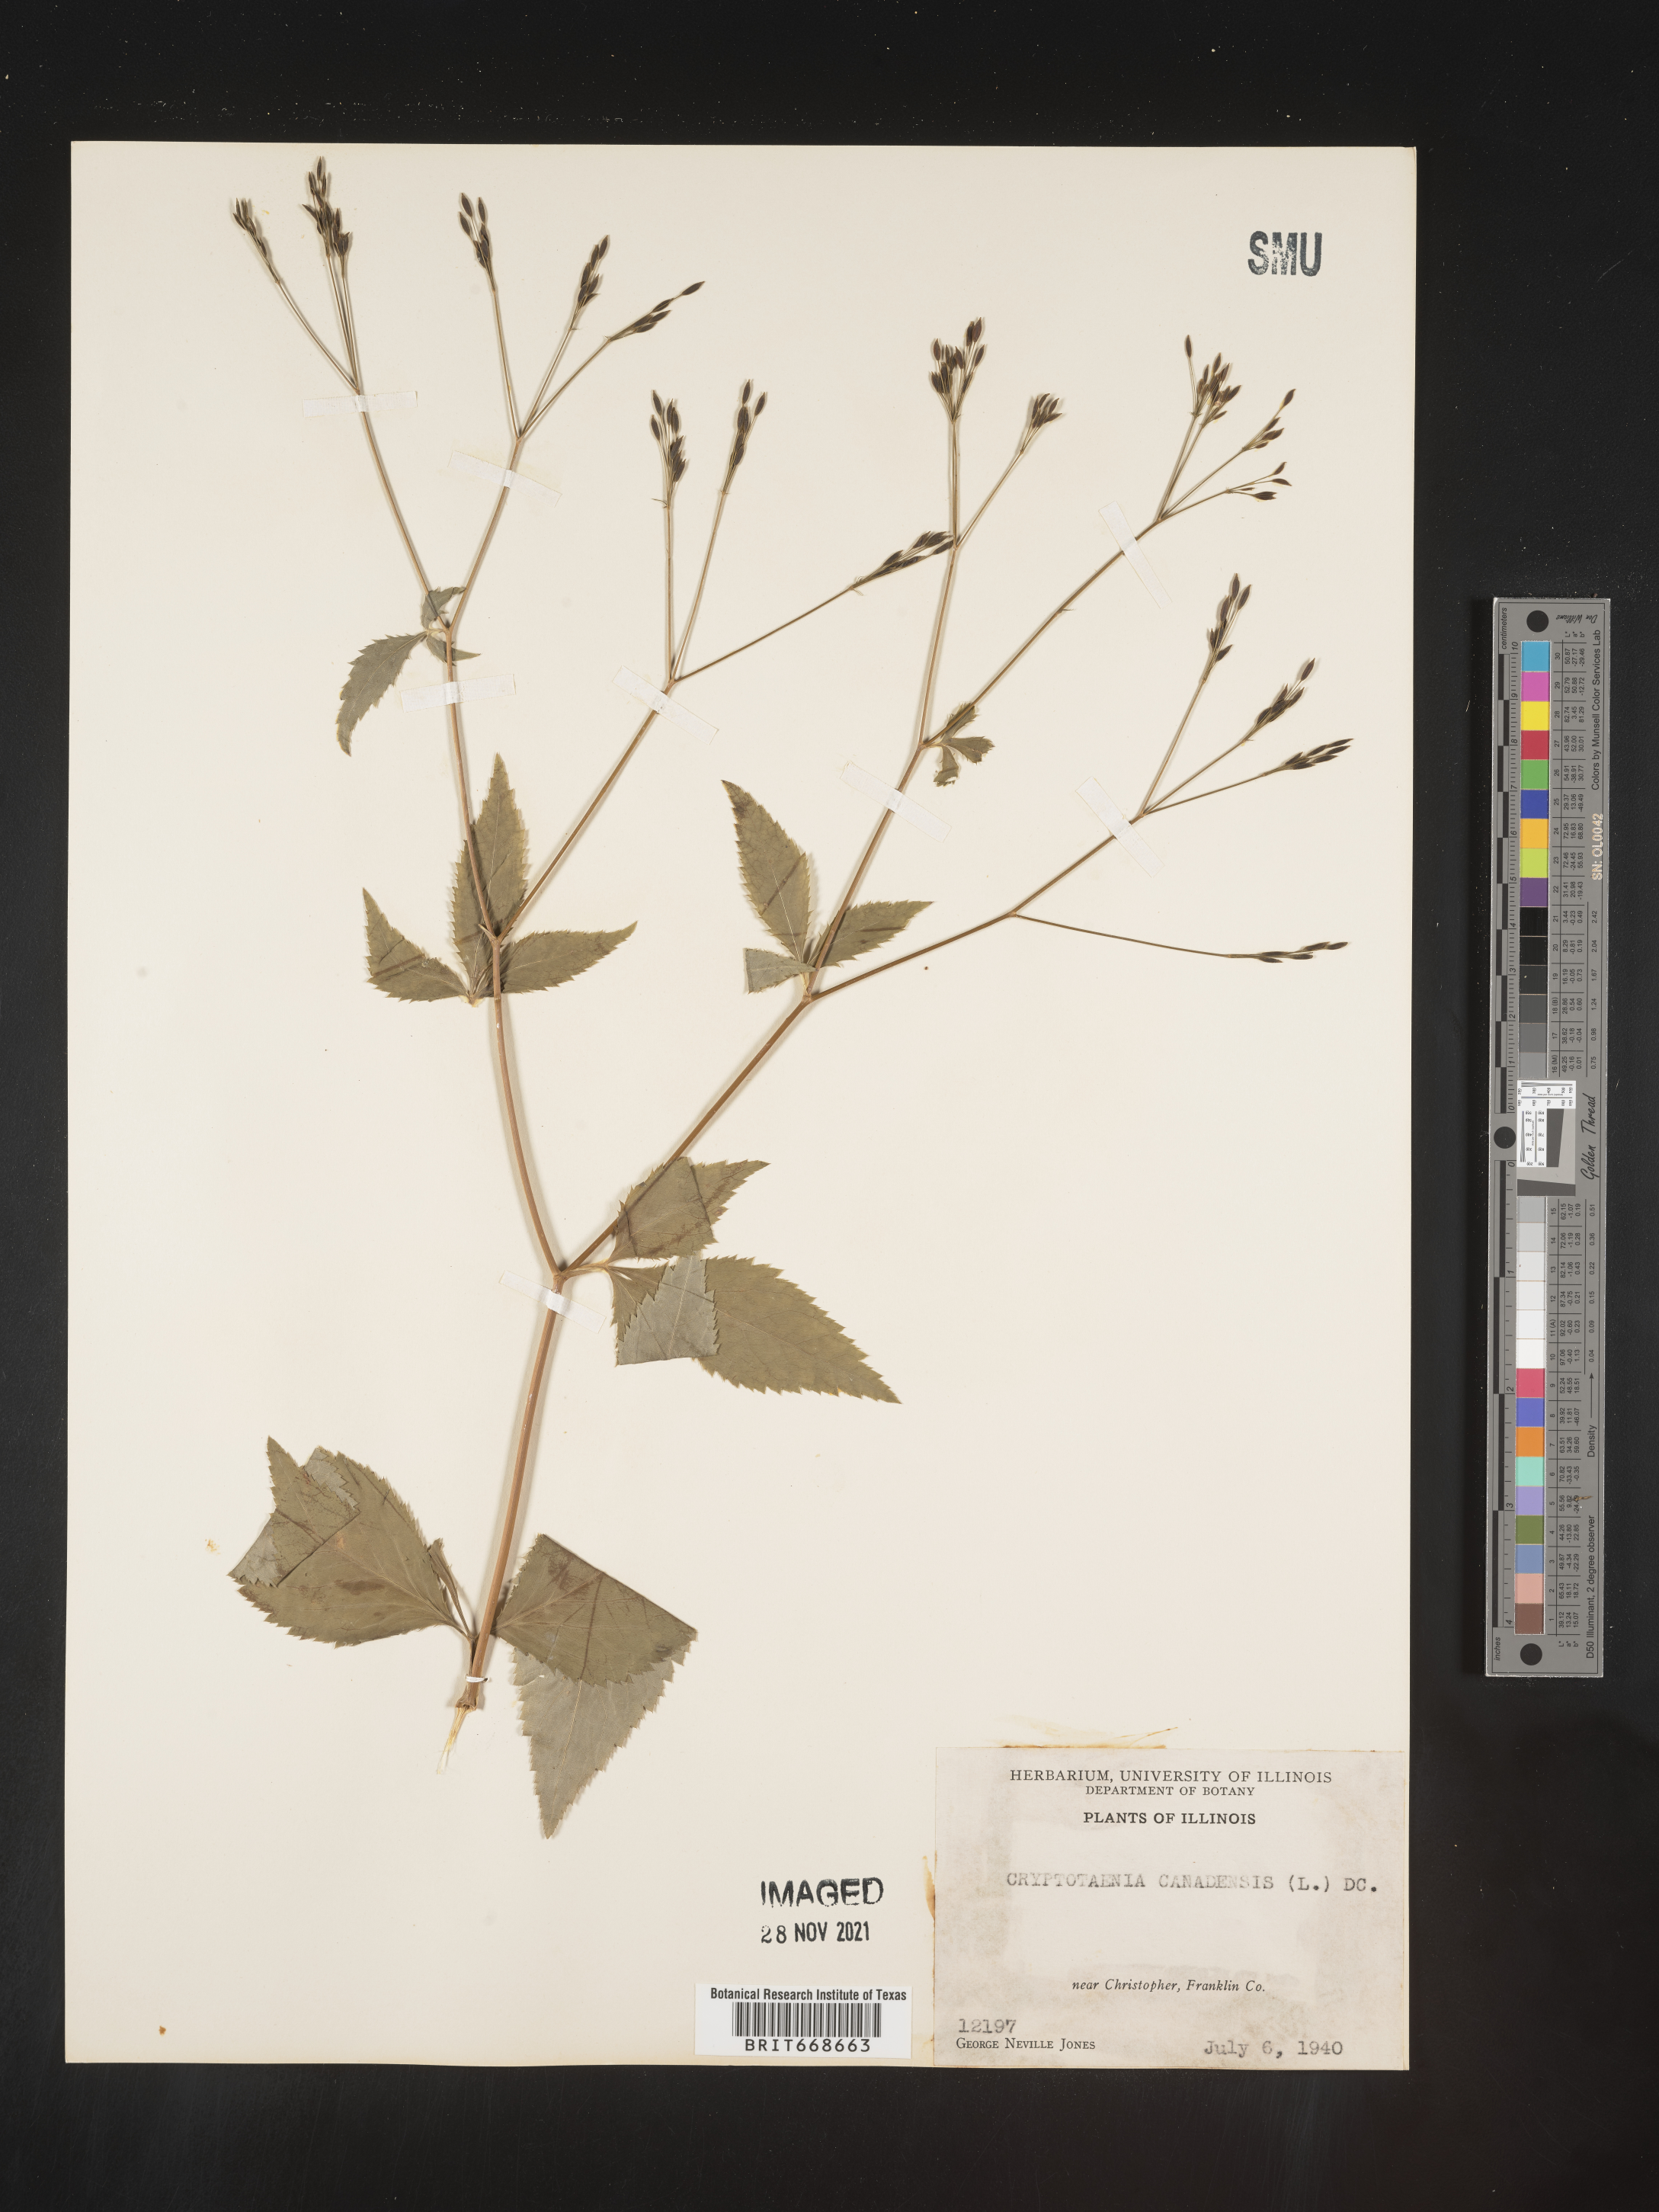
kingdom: Plantae
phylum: Tracheophyta
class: Magnoliopsida
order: Apiales
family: Apiaceae
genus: Cryptotaenia
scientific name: Cryptotaenia canadensis
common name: Honewort
